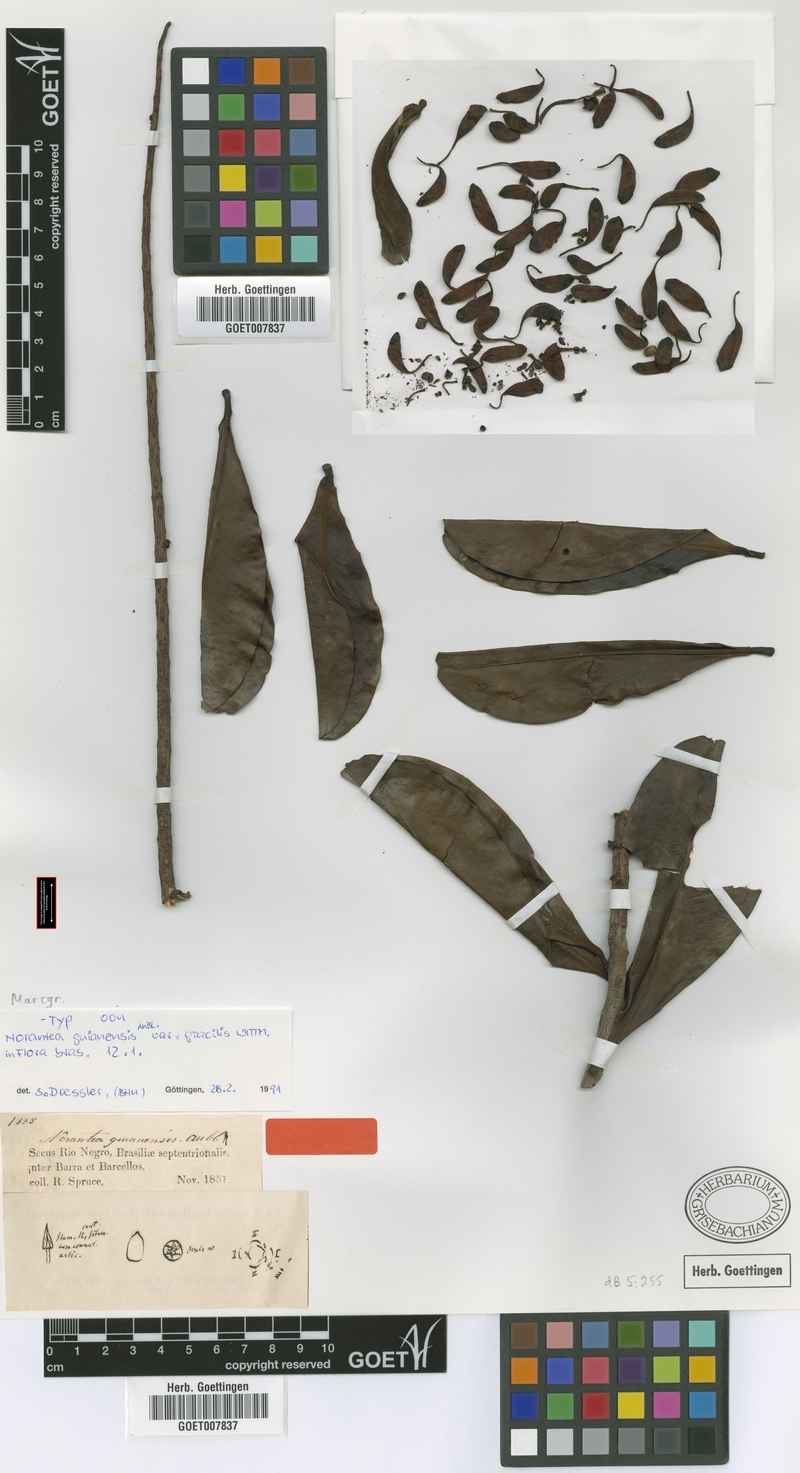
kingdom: Plantae
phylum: Tracheophyta
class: Magnoliopsida
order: Ericales
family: Marcgraviaceae
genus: Norantea
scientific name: Norantea guianensis
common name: Red hot poker vine
